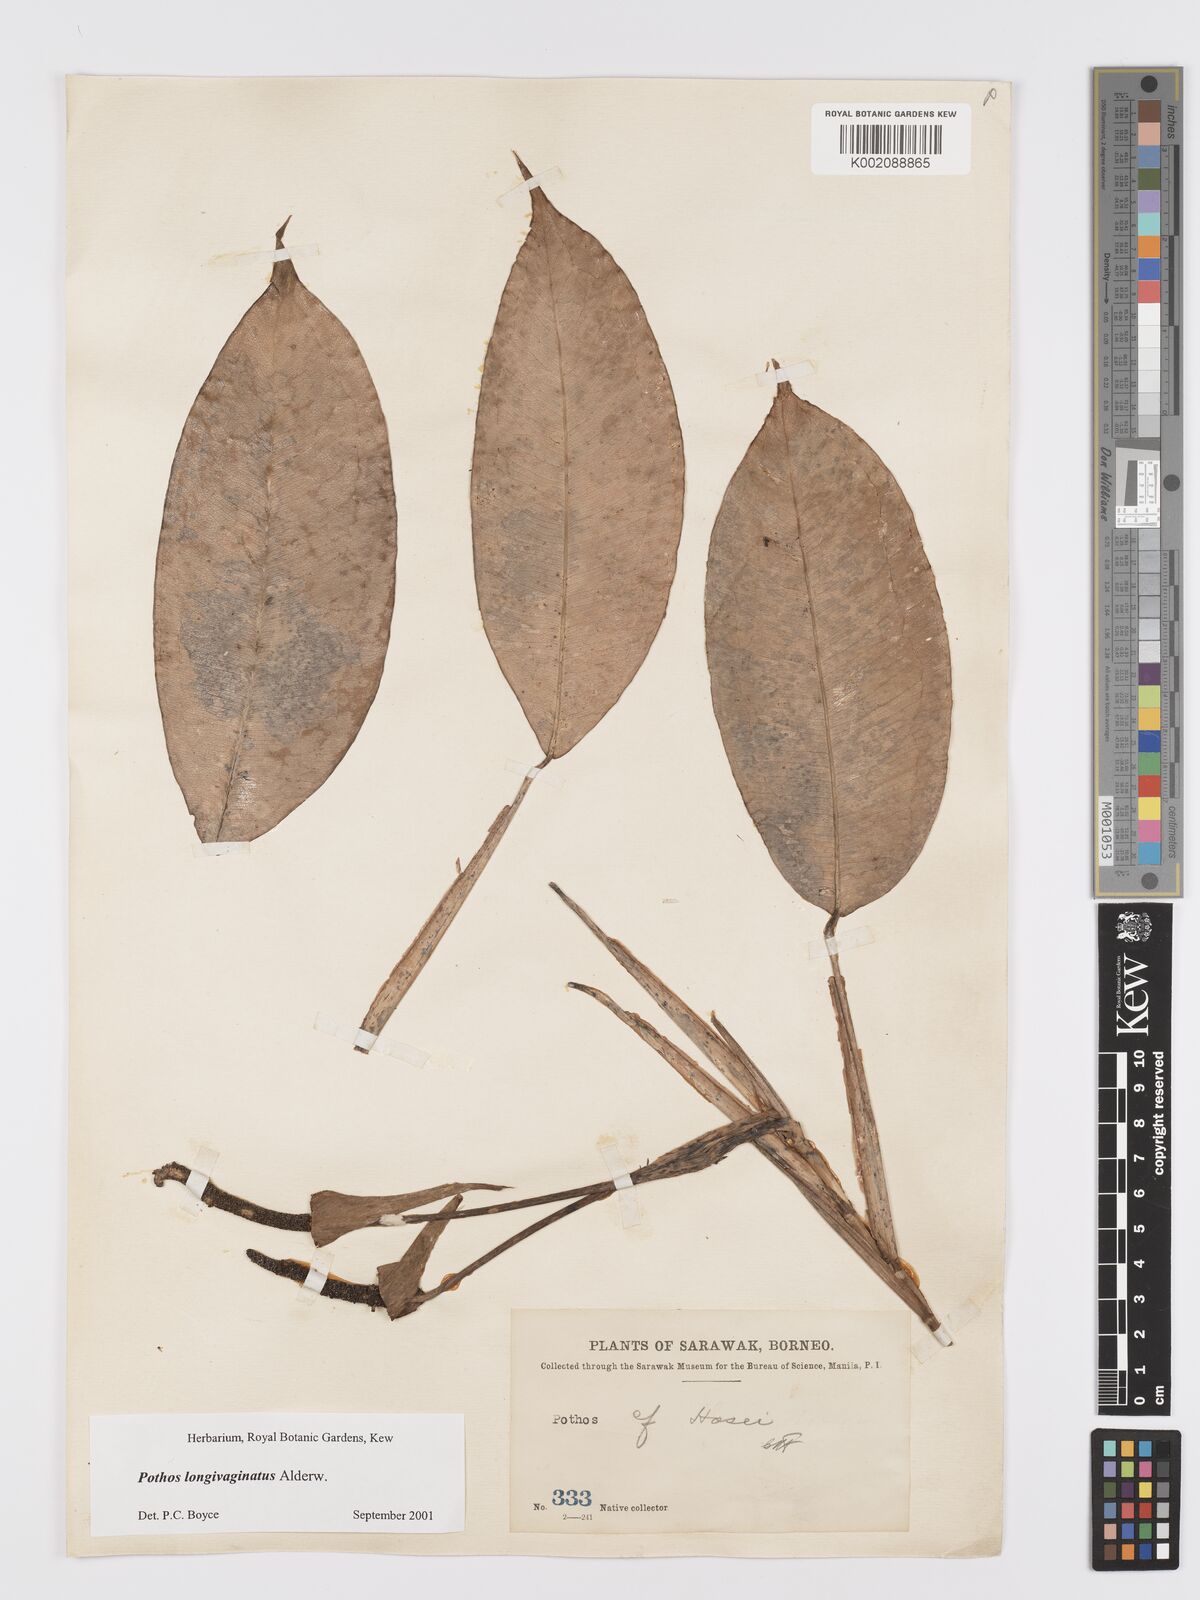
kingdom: Plantae
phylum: Tracheophyta
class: Liliopsida
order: Alismatales
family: Araceae
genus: Pothos
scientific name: Pothos longivaginatus
